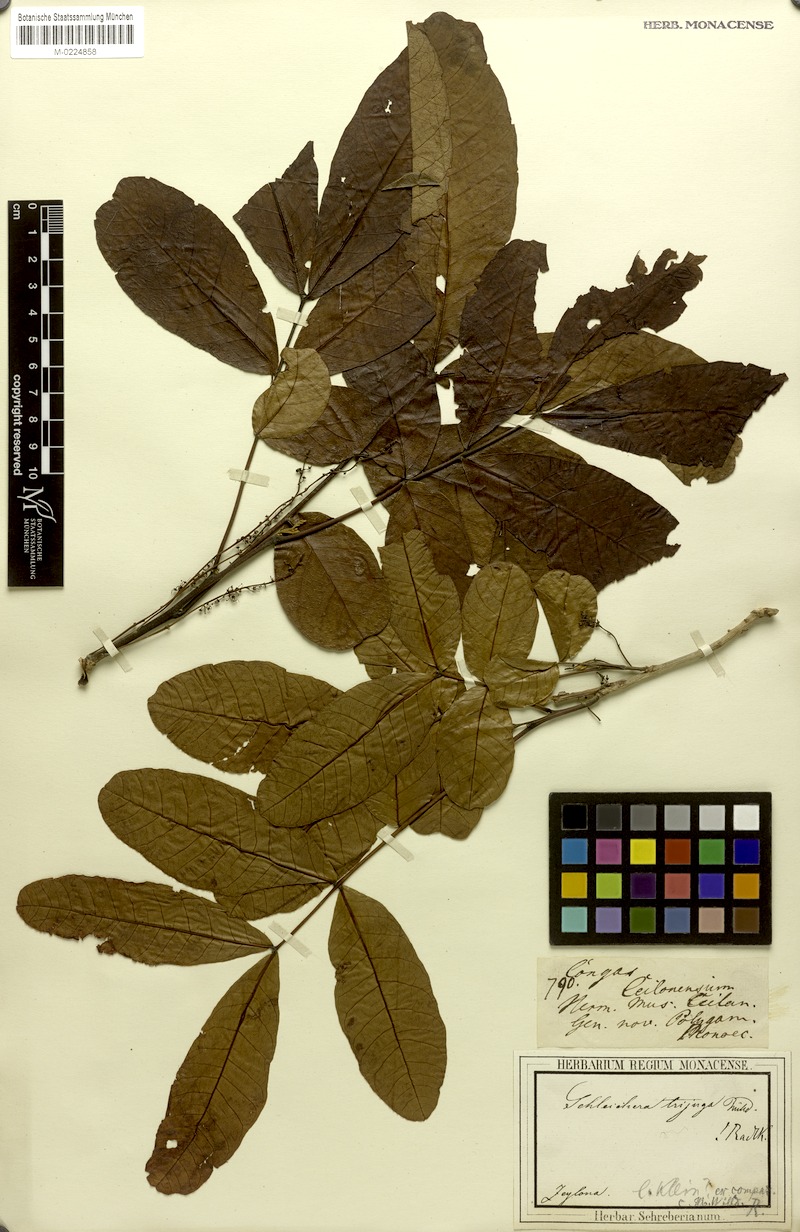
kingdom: Plantae
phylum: Tracheophyta
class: Magnoliopsida
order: Sapindales
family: Sapindaceae
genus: Schleichera
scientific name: Schleichera oleosa
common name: Malay lactree
